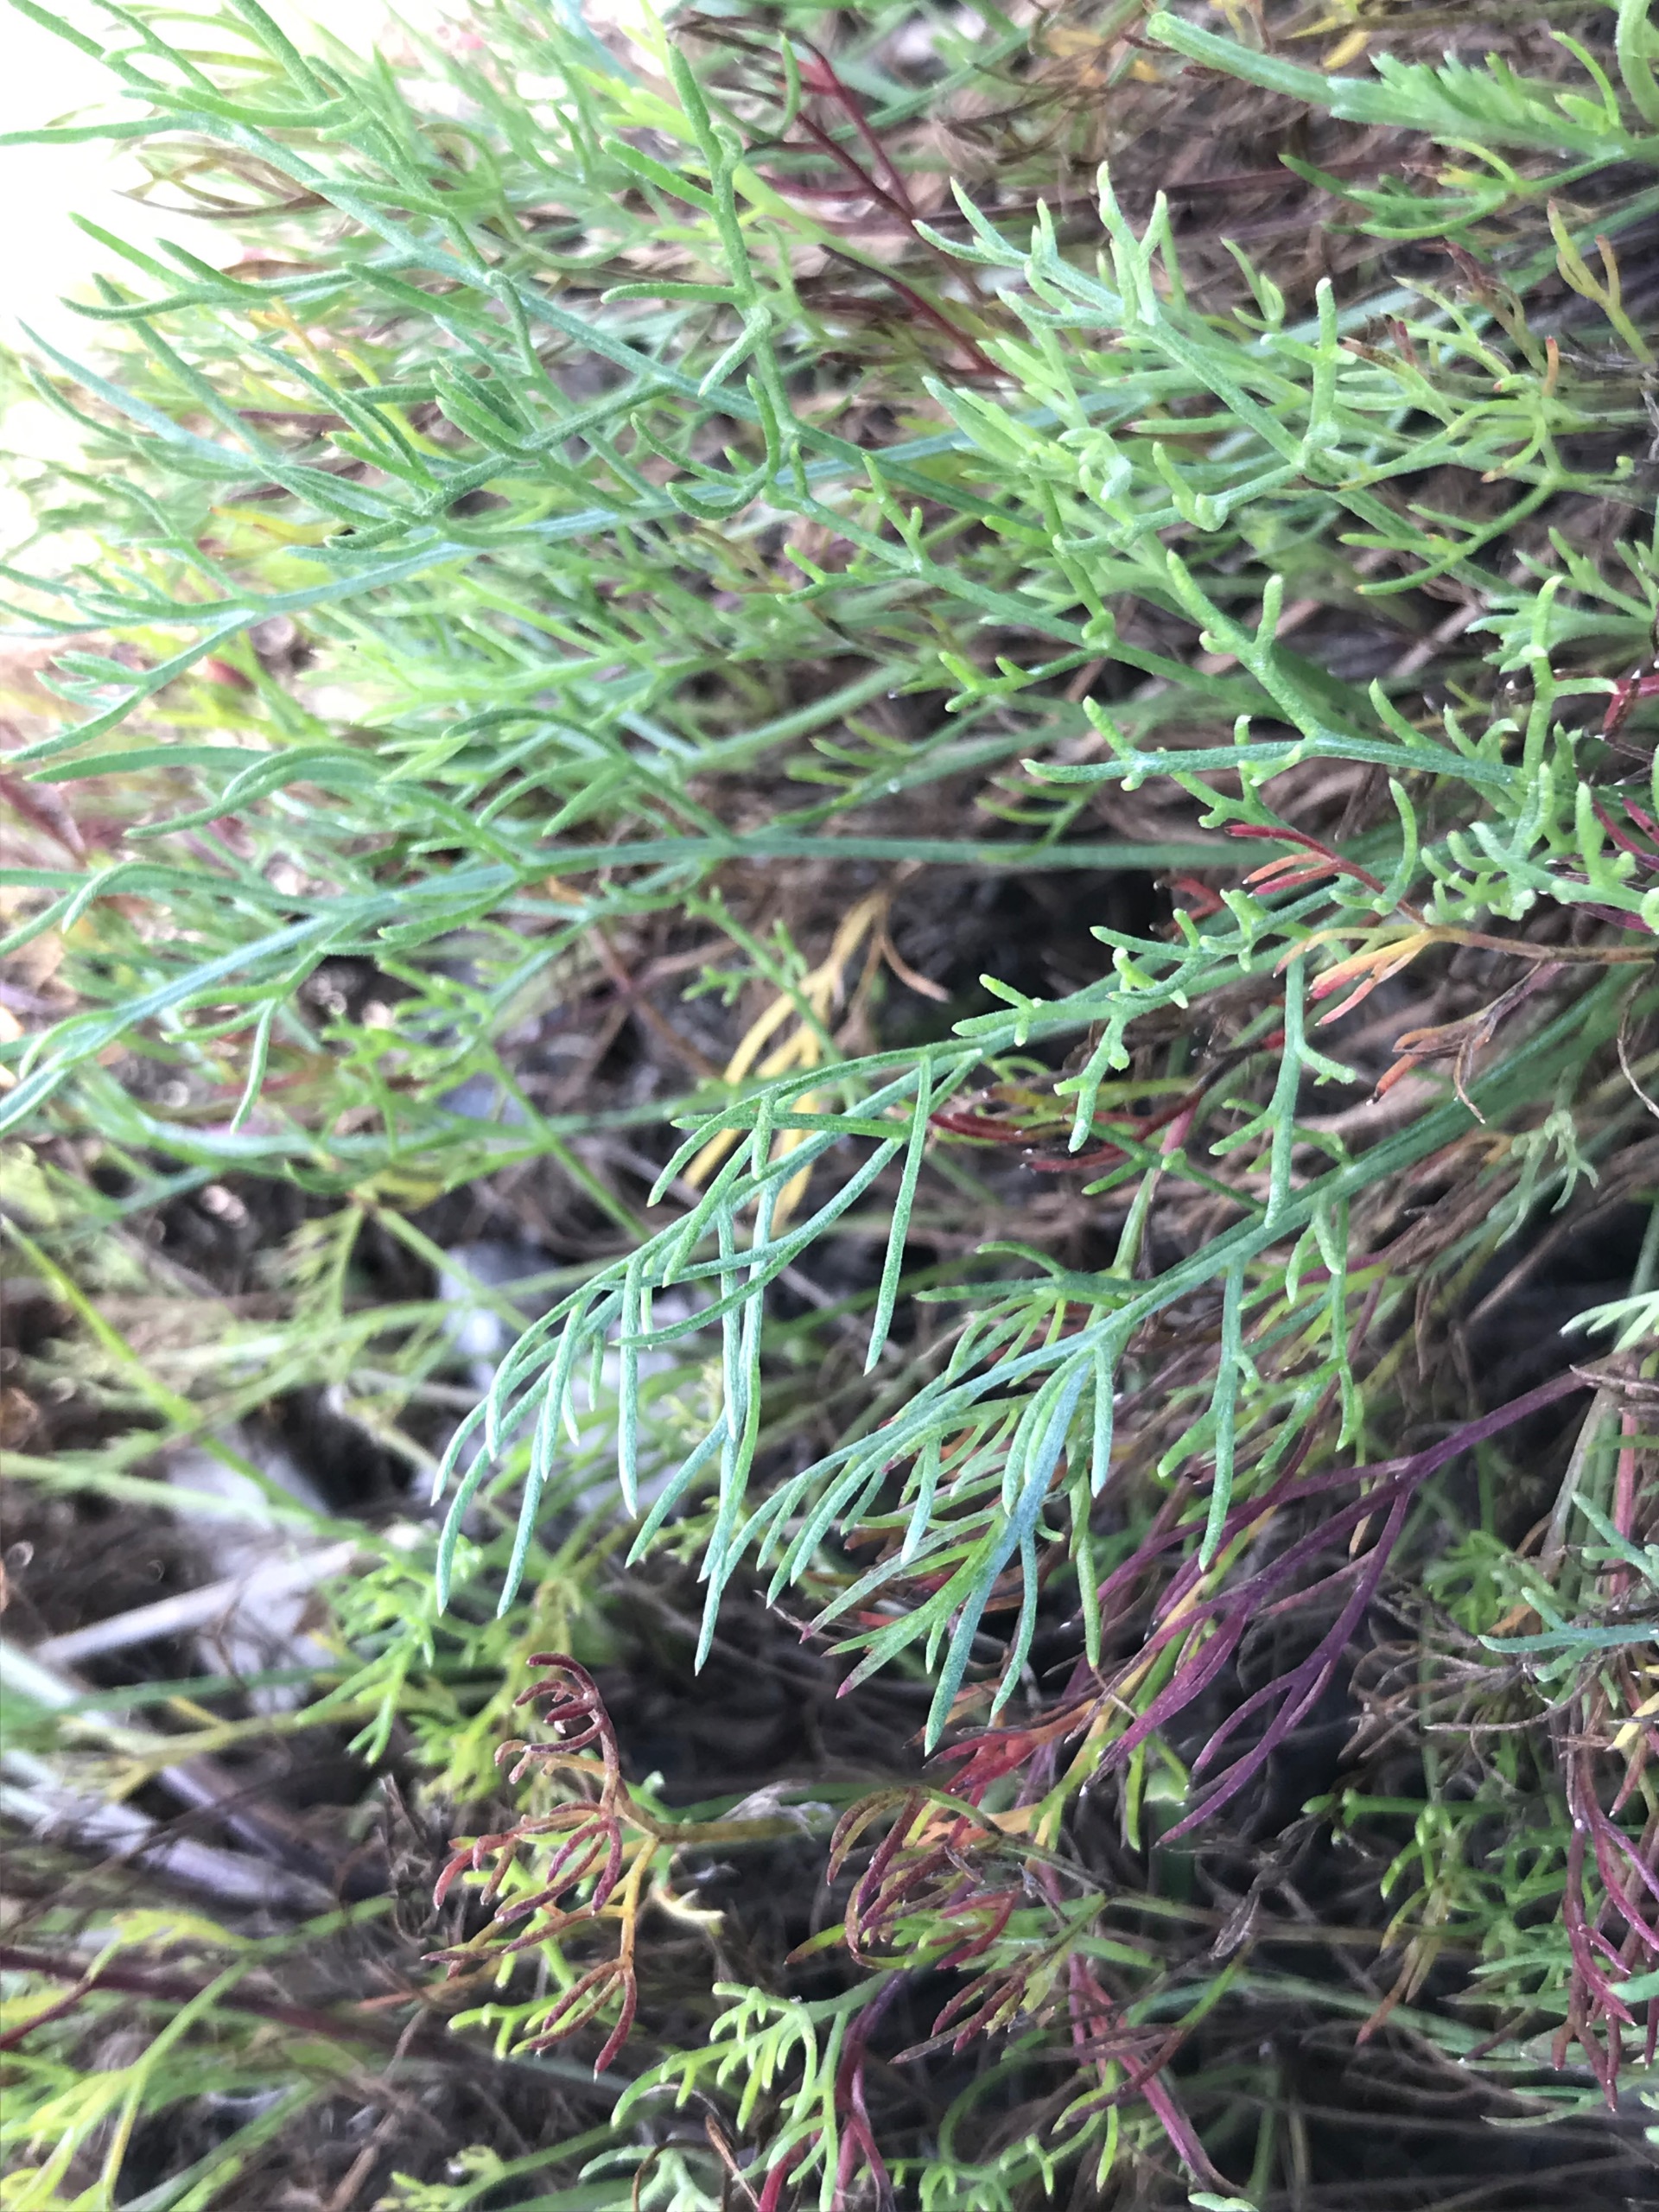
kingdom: Plantae
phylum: Tracheophyta
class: Magnoliopsida
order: Asterales
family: Asteraceae
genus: Artemisia
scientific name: Artemisia campestris
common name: Mark-bynke
